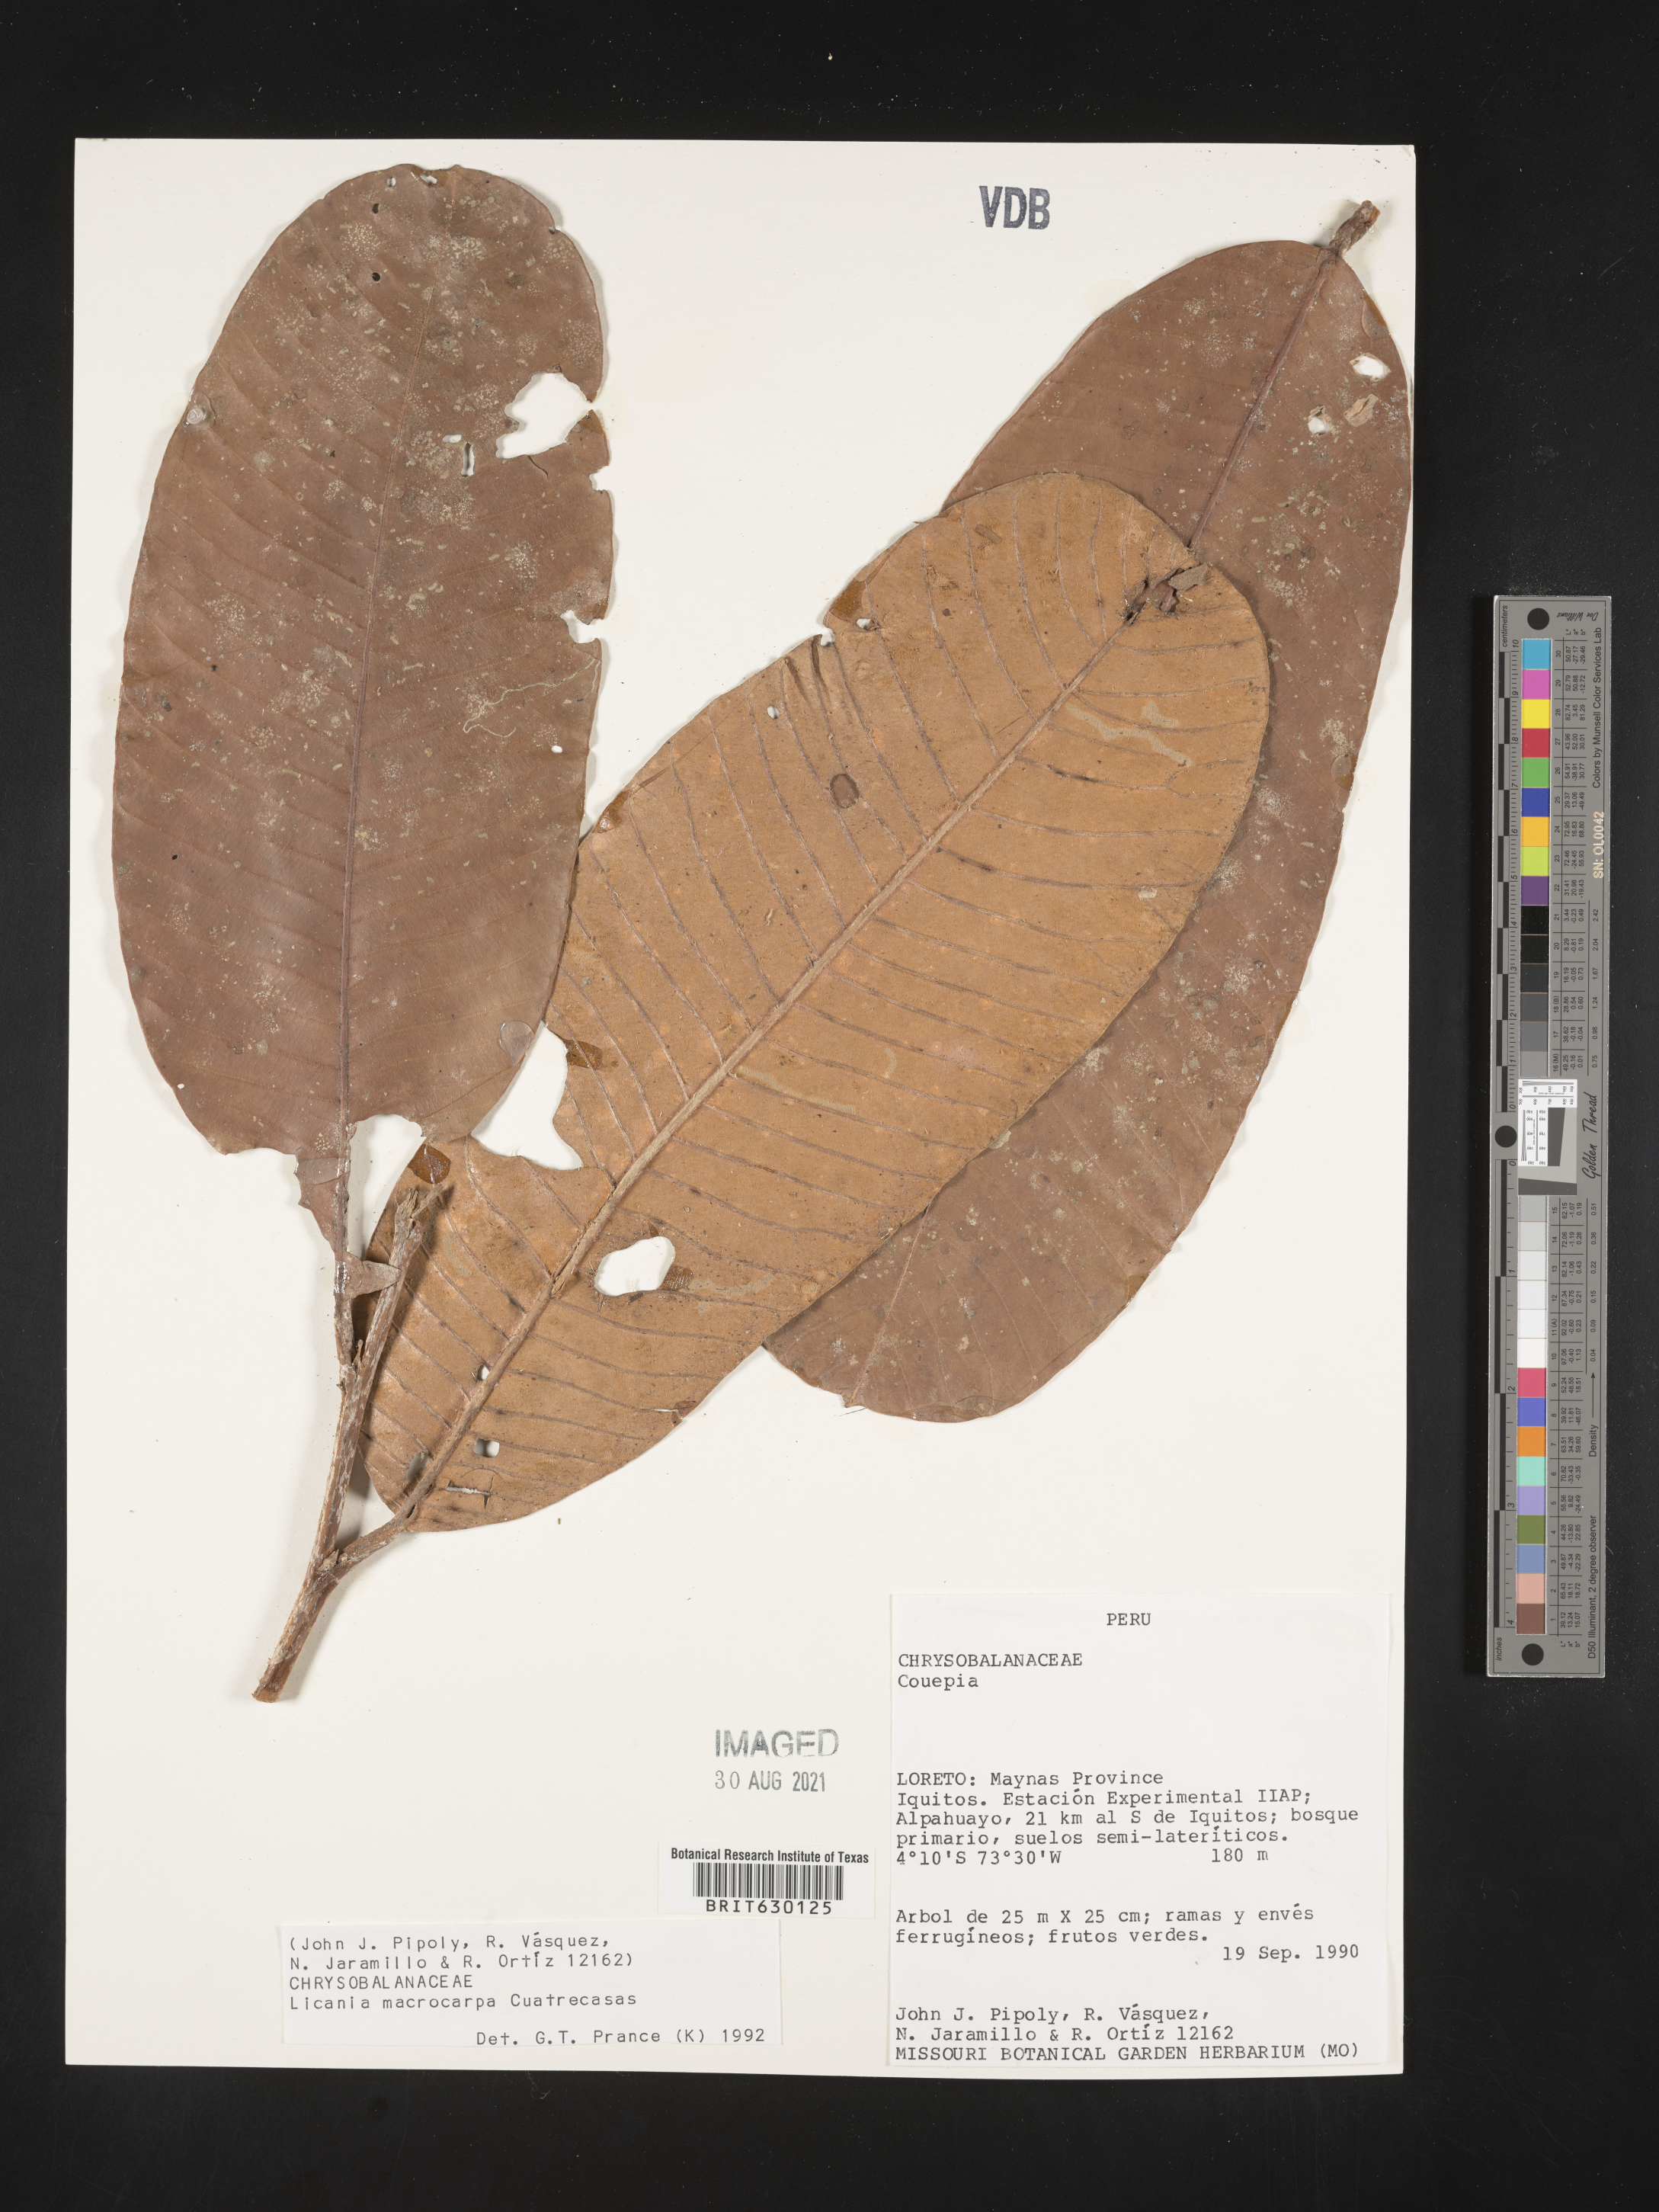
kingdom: Plantae
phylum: Tracheophyta
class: Magnoliopsida
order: Malpighiales
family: Chrysobalanaceae
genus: Moquilea
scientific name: Moquilea magnifructa
